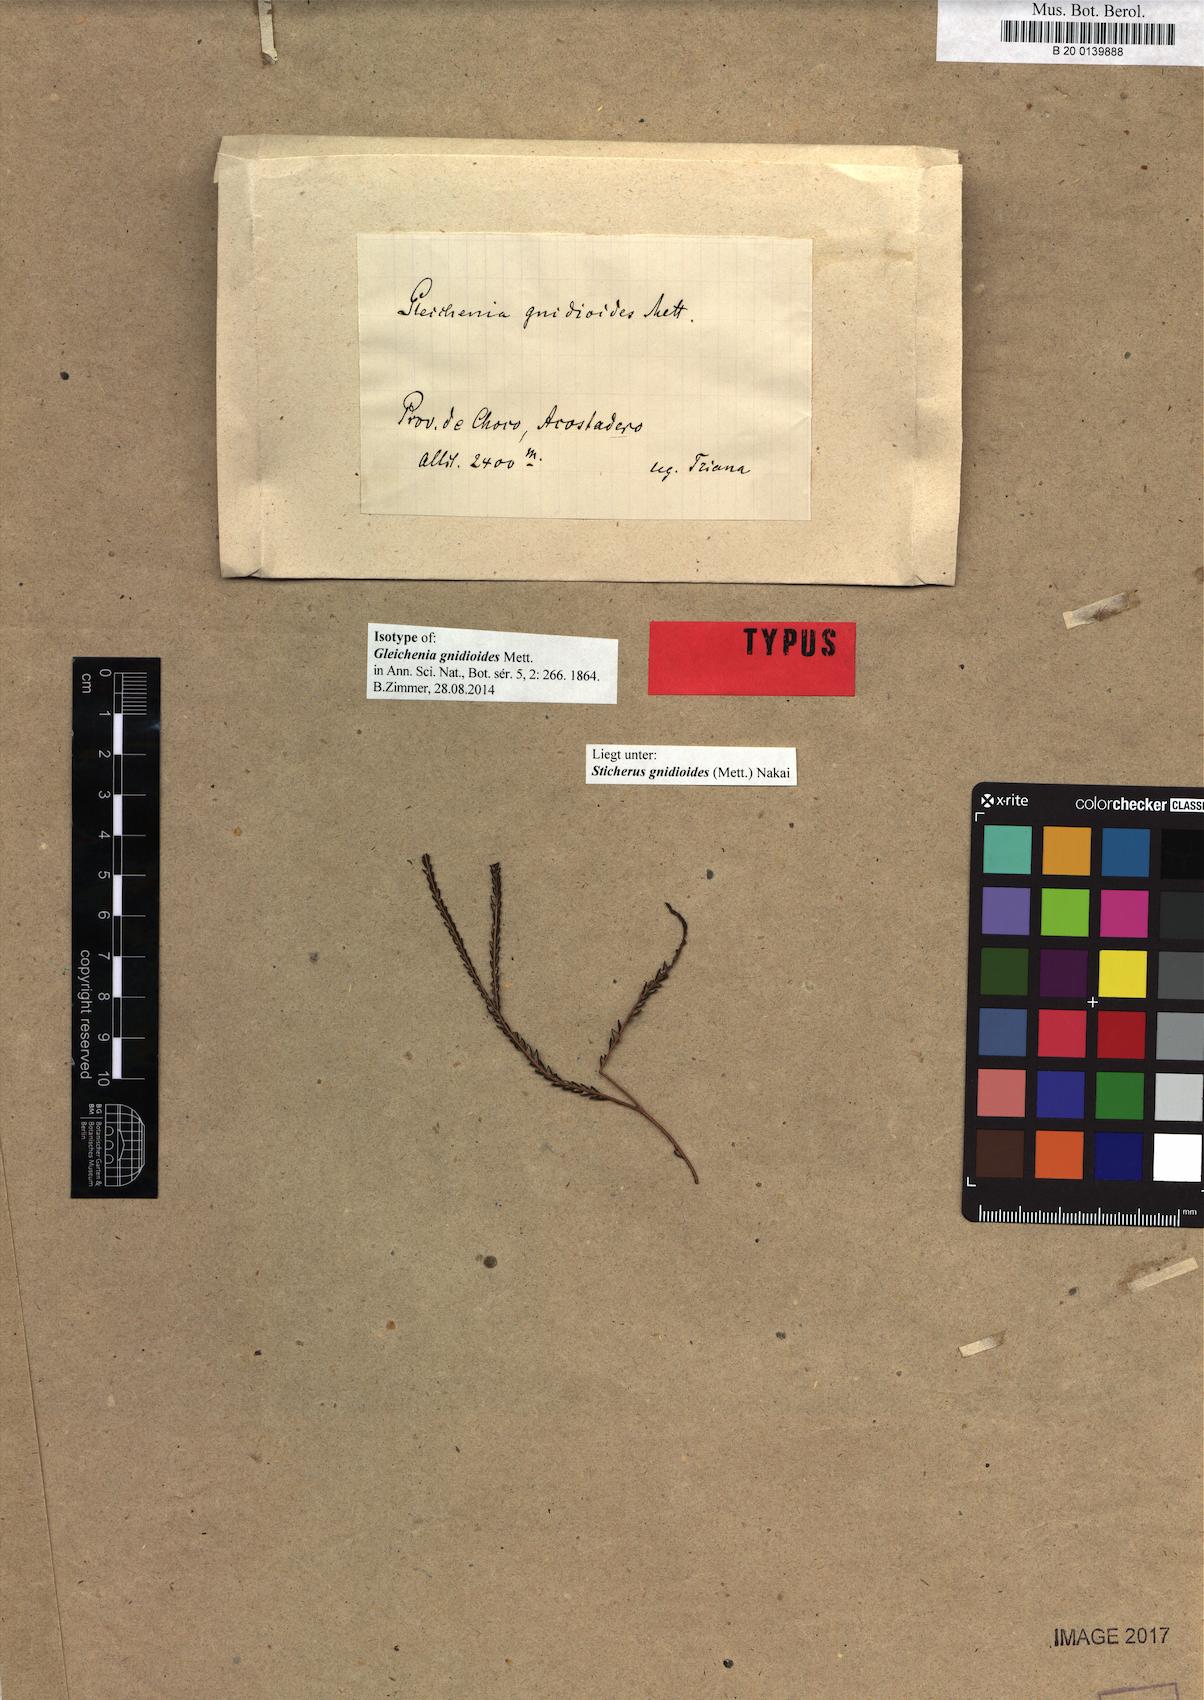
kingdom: Plantae
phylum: Tracheophyta
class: Polypodiopsida
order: Polypodiales
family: Dryopteridaceae
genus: Megalastrum
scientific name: Megalastrum lunense
